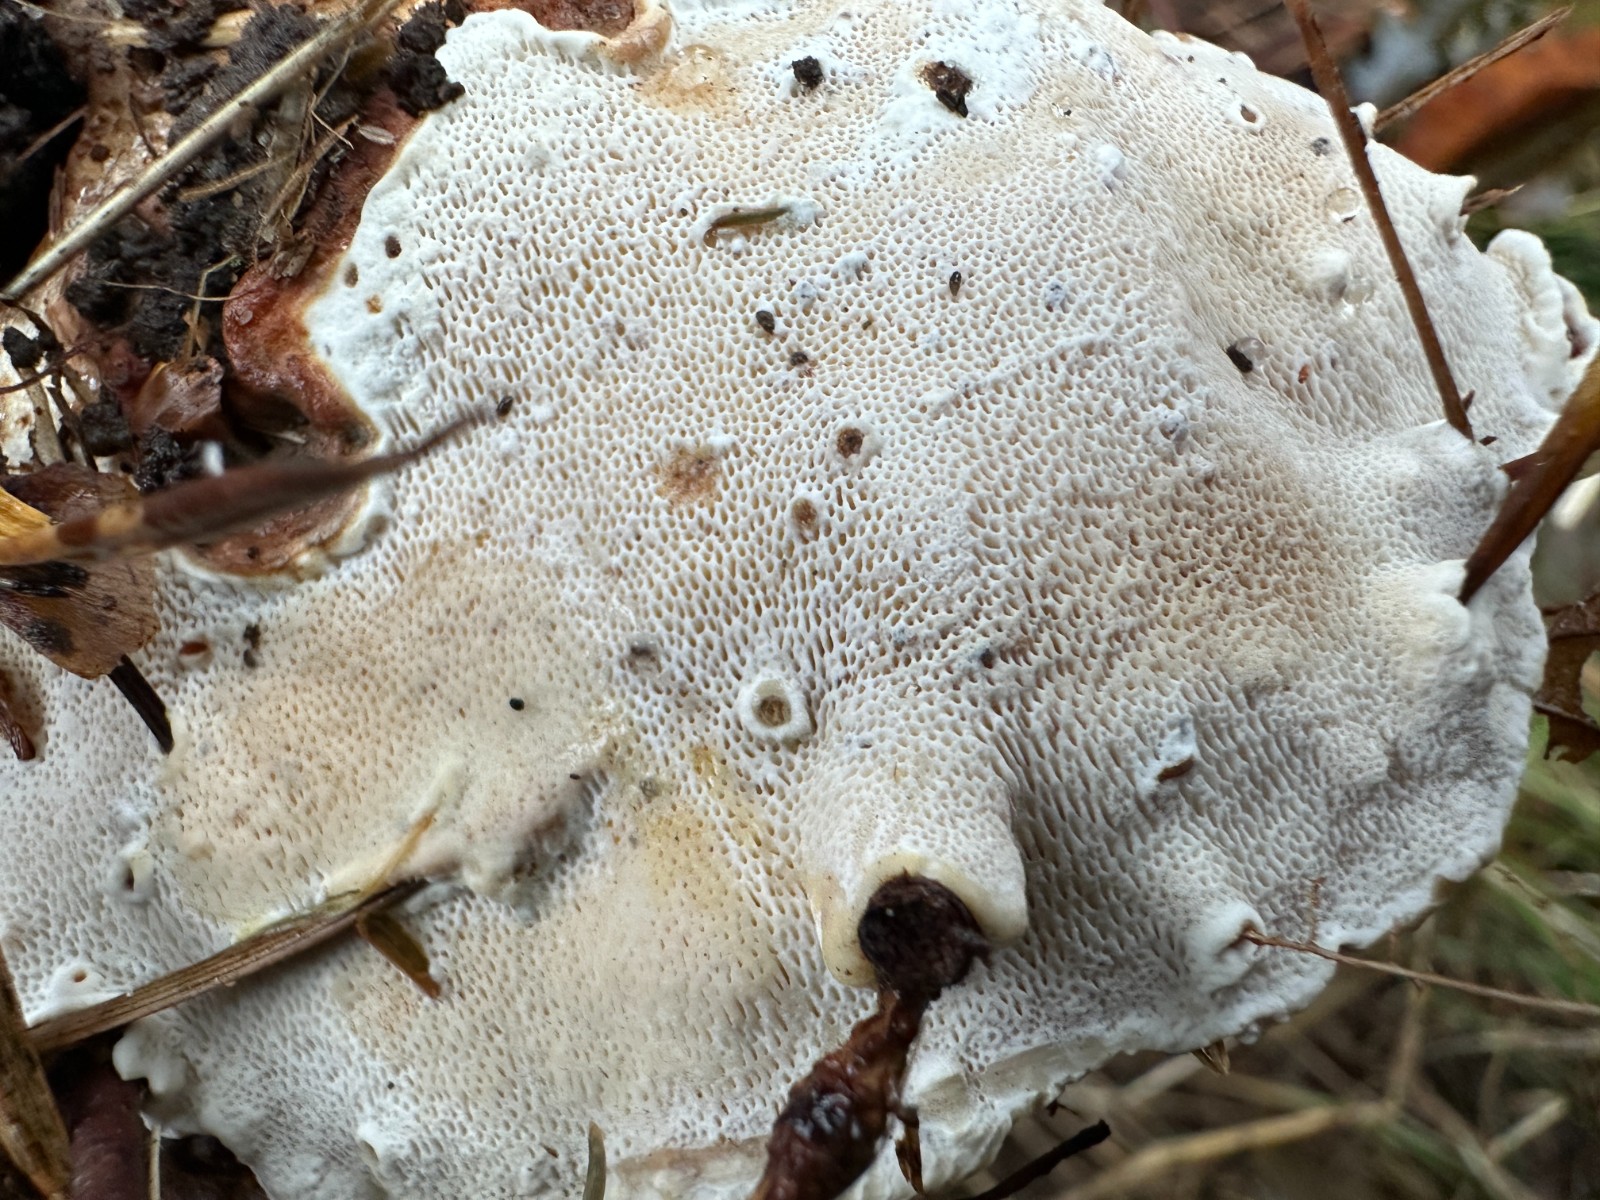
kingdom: Fungi
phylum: Basidiomycota
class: Agaricomycetes
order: Russulales
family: Bondarzewiaceae
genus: Heterobasidion
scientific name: Heterobasidion annosum
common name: almindelig rodfordærver
